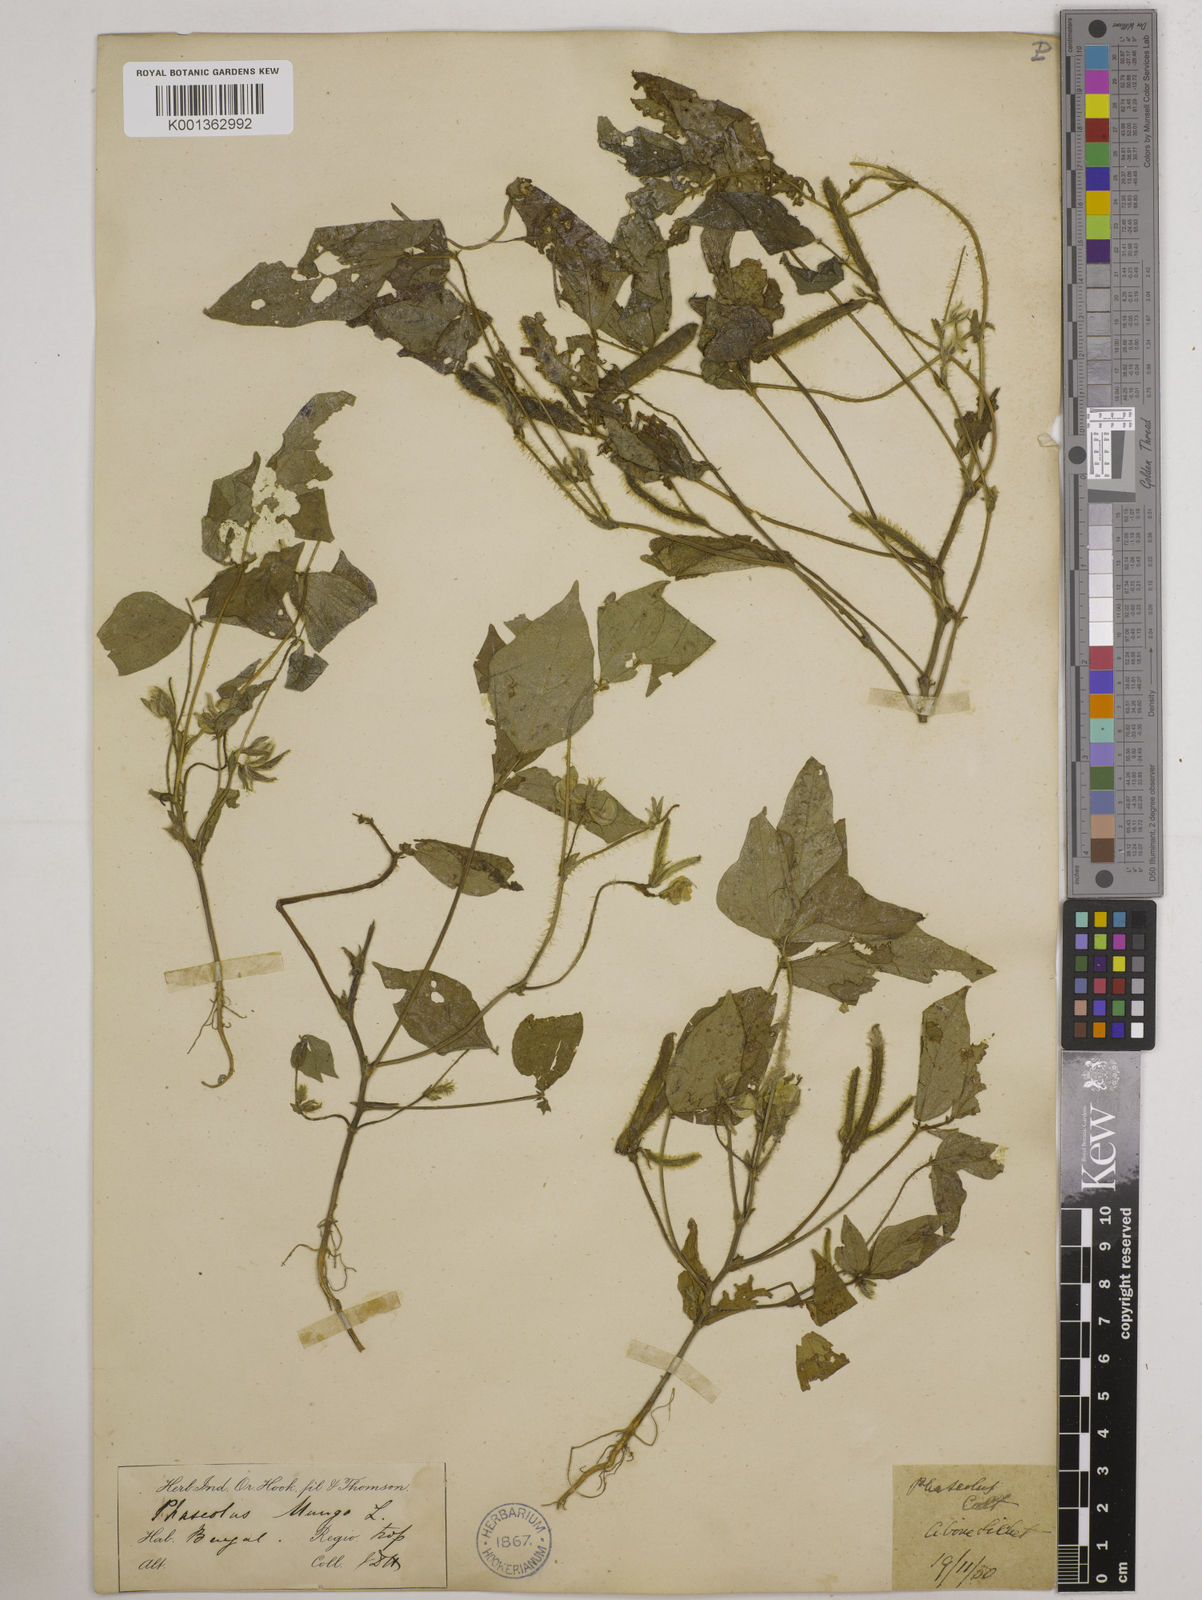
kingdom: Plantae
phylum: Tracheophyta
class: Magnoliopsida
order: Fabales
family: Fabaceae
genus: Vigna
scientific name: Vigna mungo
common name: Black gram
